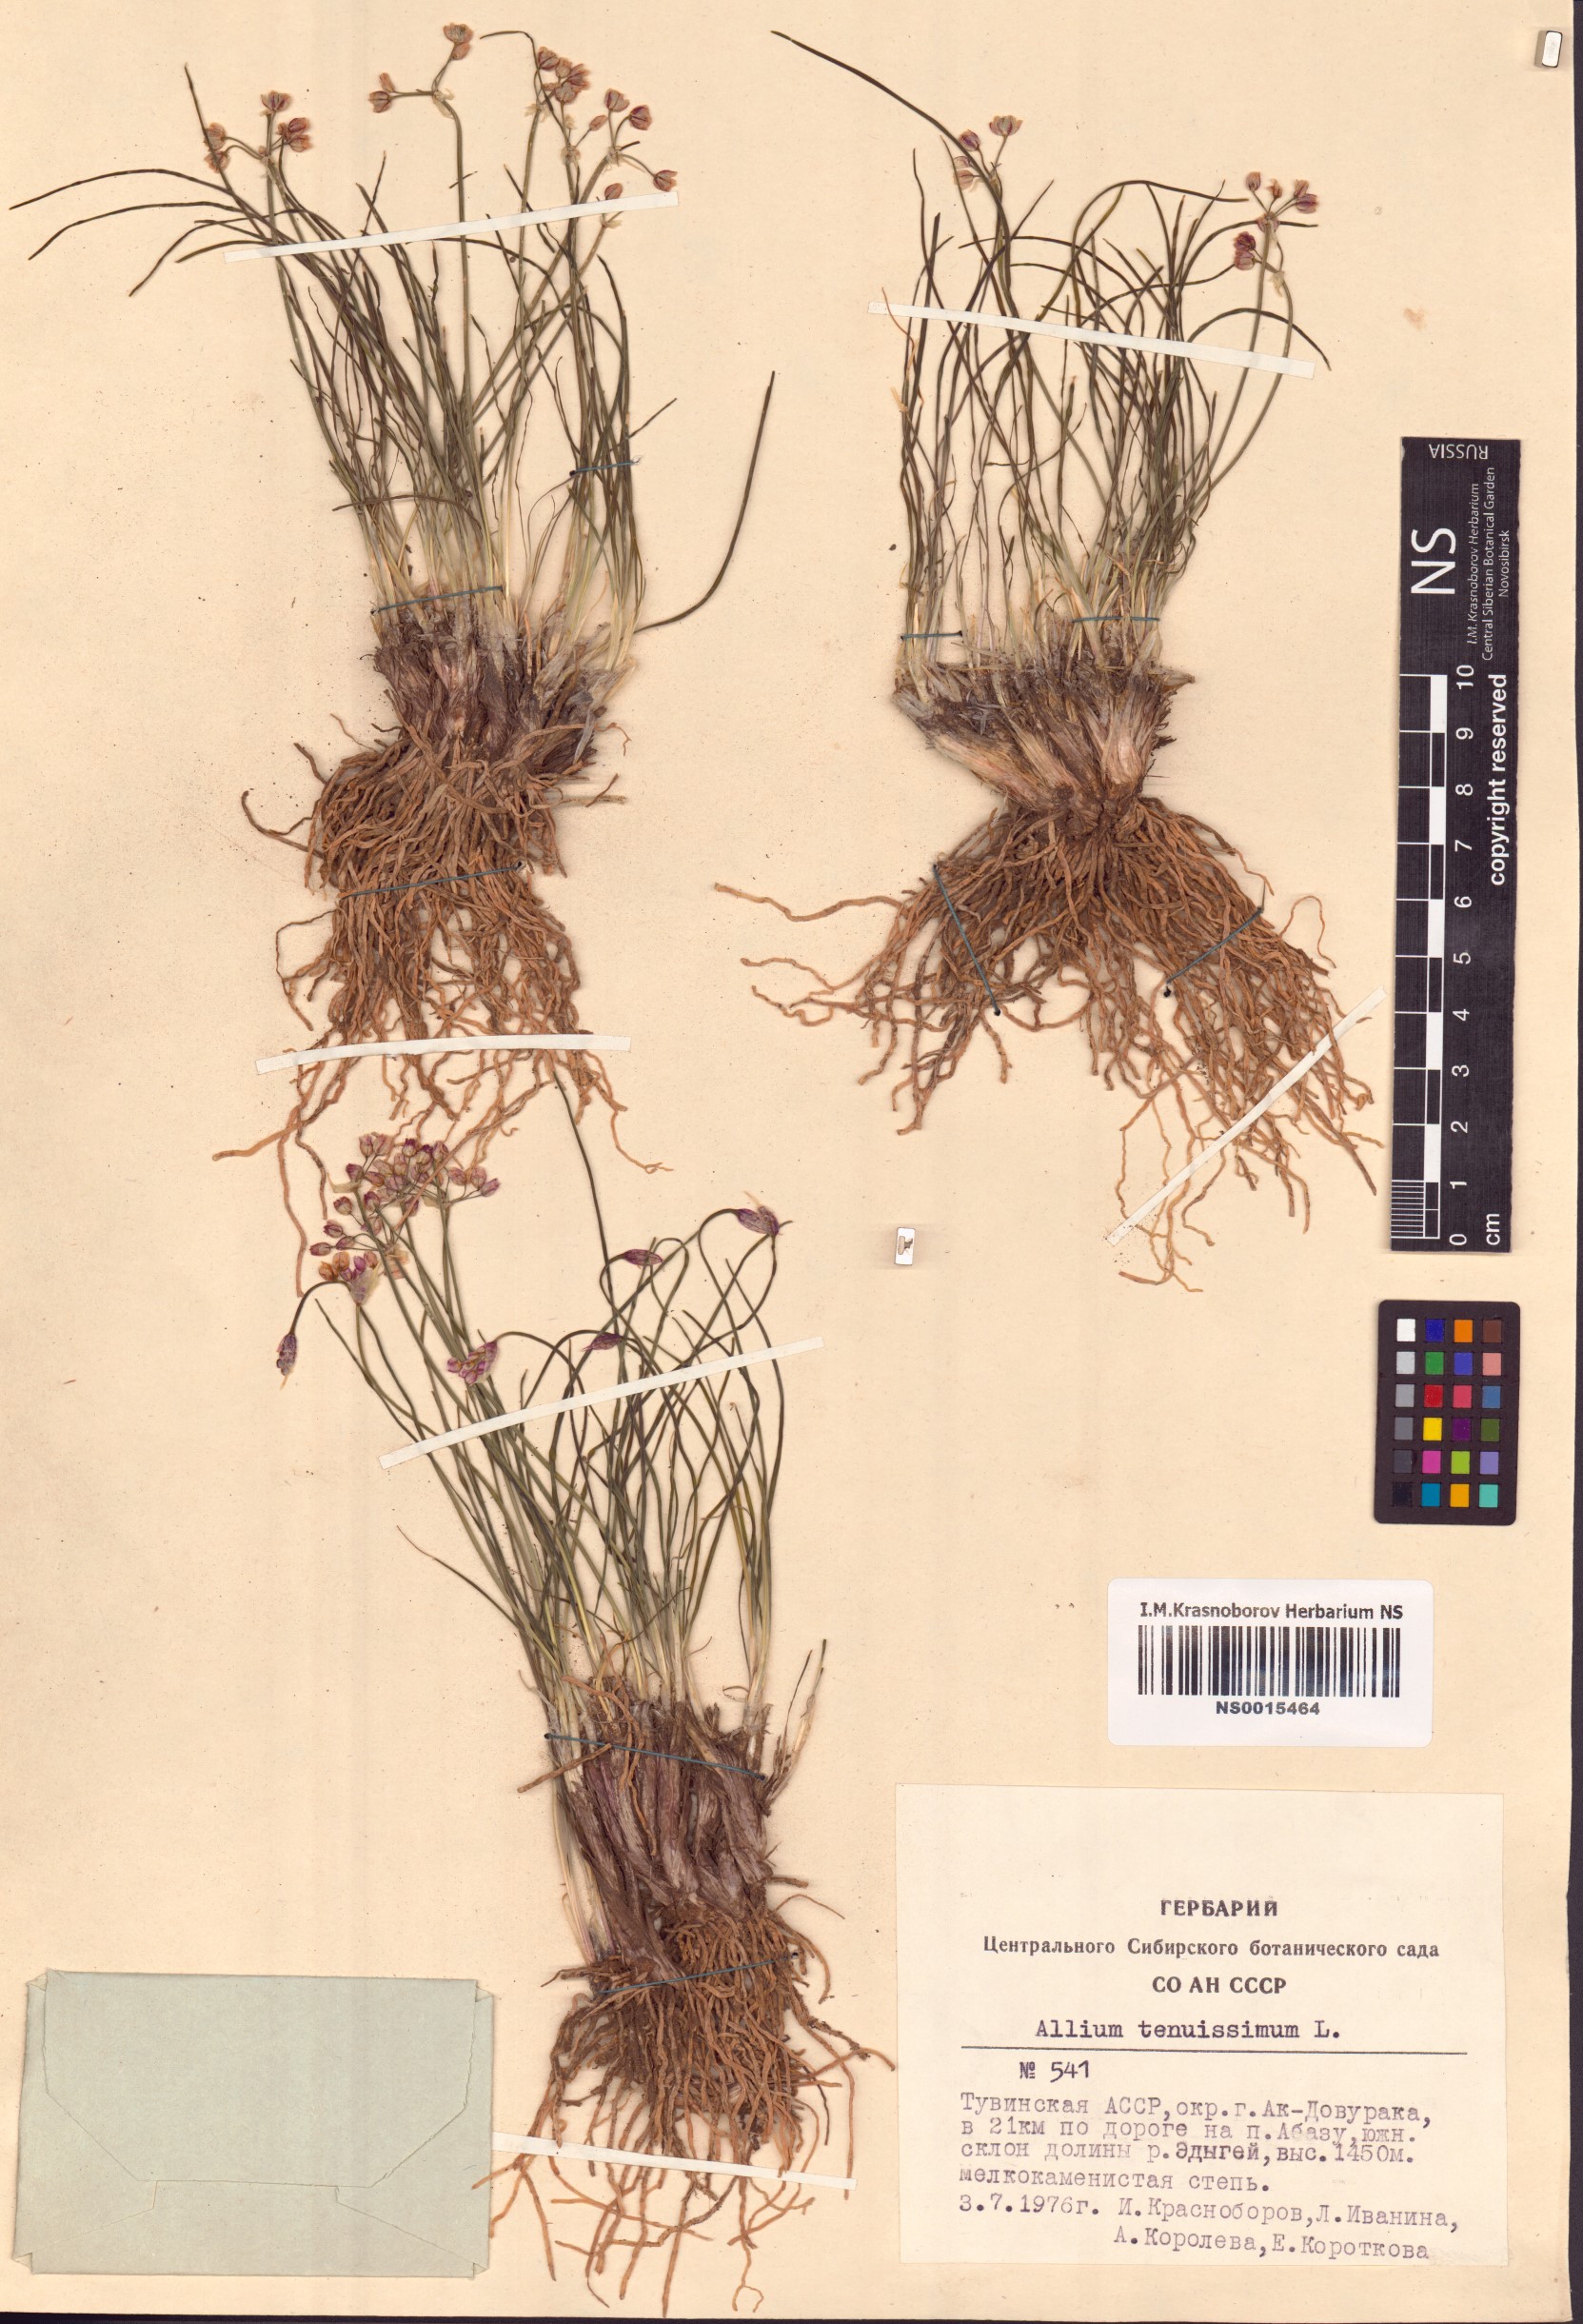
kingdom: Plantae
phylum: Tracheophyta
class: Liliopsida
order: Asparagales
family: Amaryllidaceae
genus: Allium
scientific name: Allium tenuissimum
